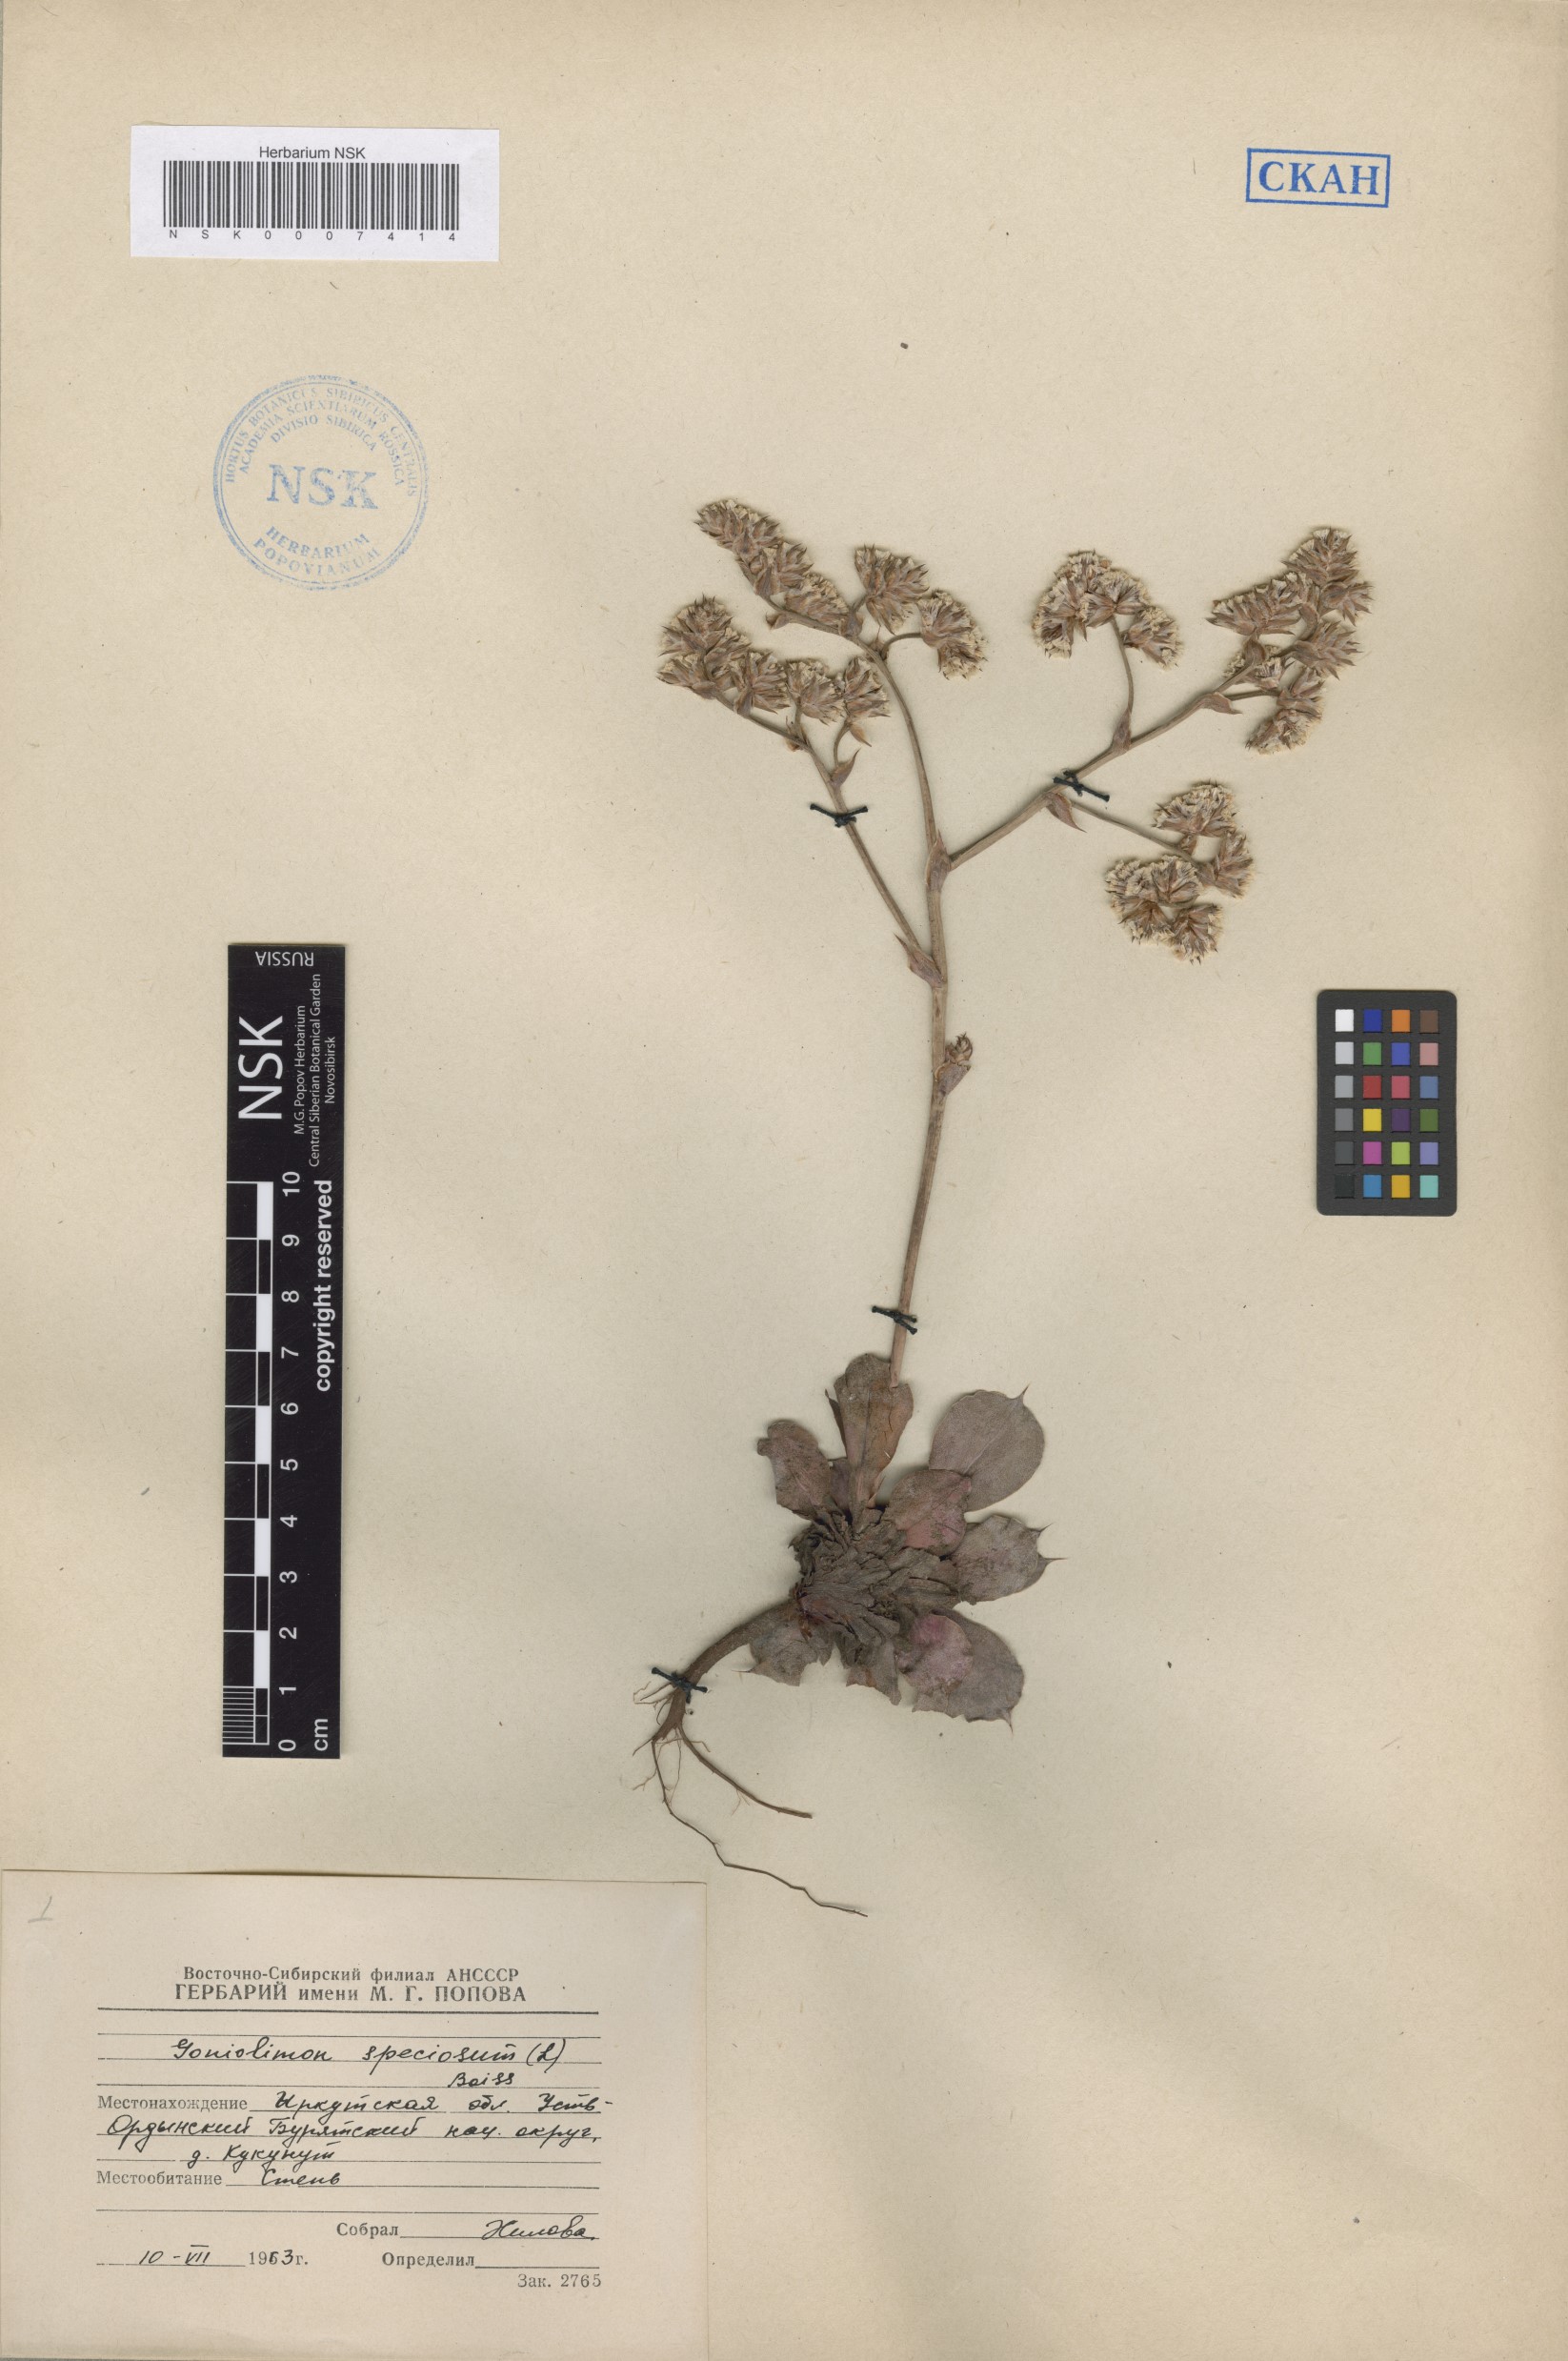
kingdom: Plantae
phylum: Tracheophyta
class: Magnoliopsida
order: Caryophyllales
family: Plumbaginaceae
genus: Goniolimon
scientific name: Goniolimon speciosum
